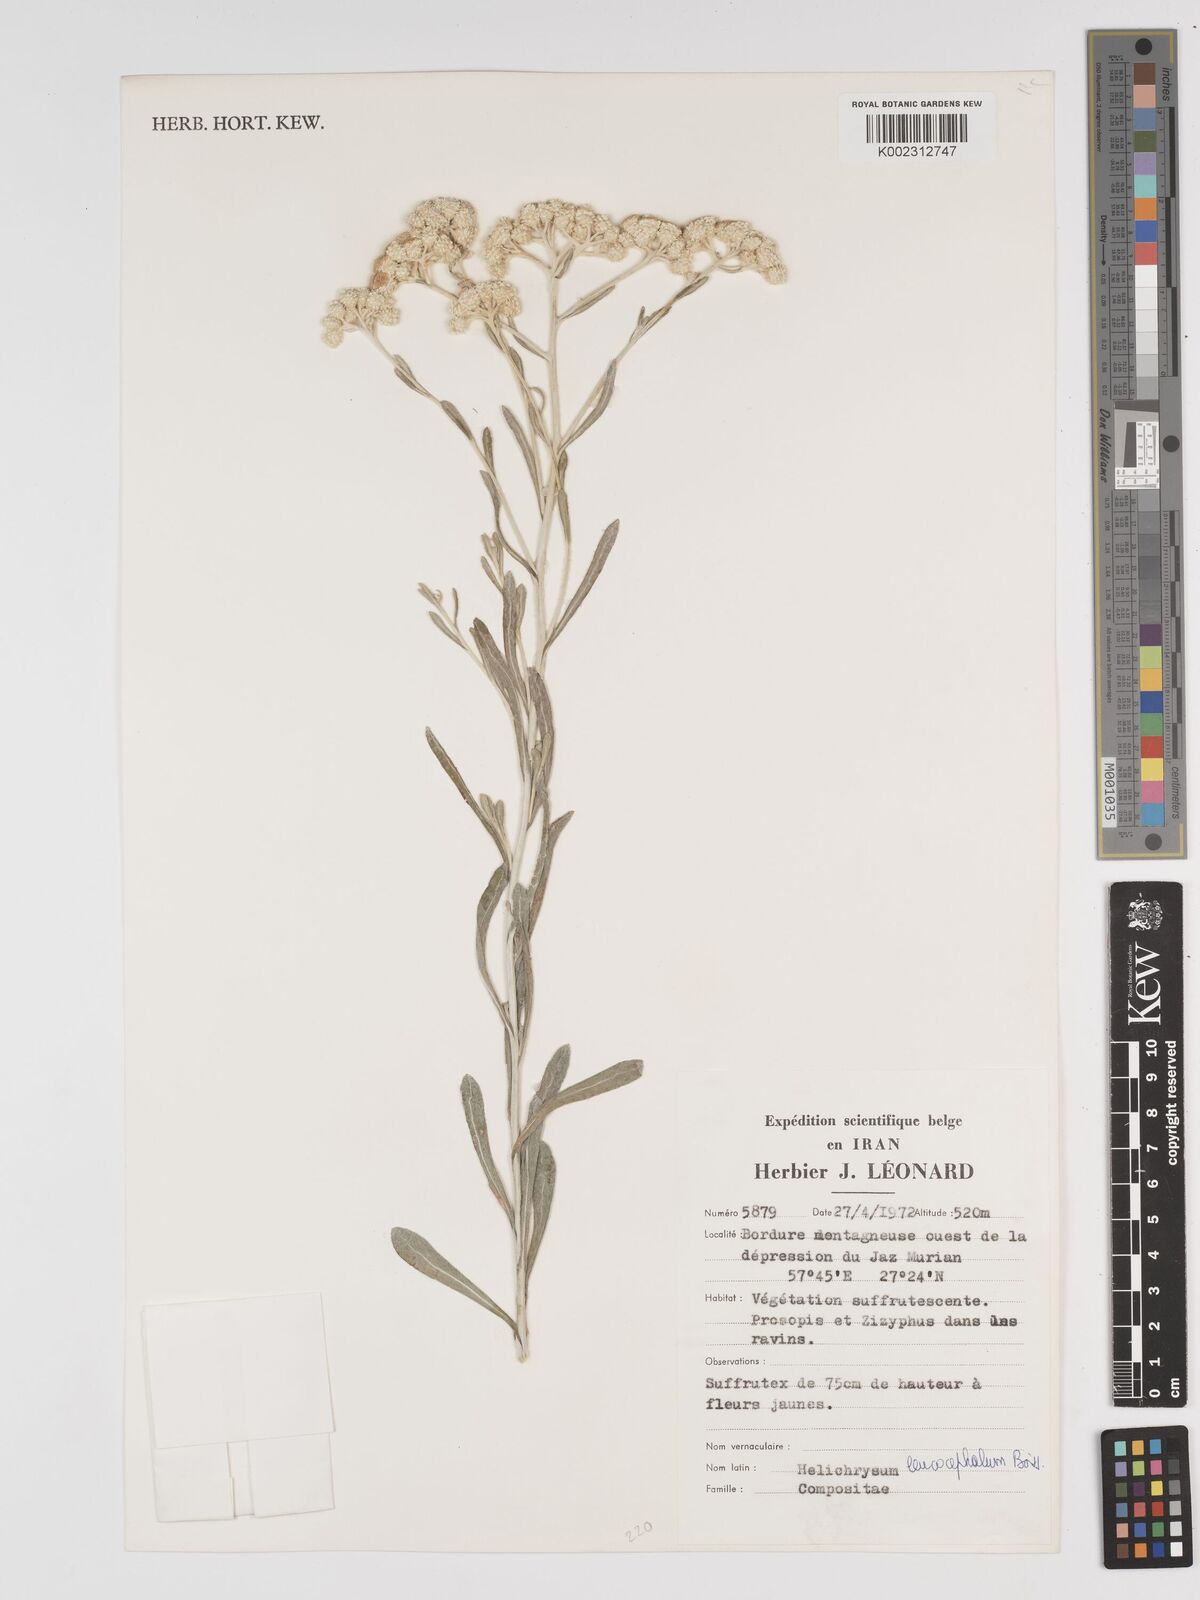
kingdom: Plantae
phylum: Tracheophyta
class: Magnoliopsida
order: Asterales
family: Asteraceae
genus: Helichrysum
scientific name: Helichrysum leucocephalum
